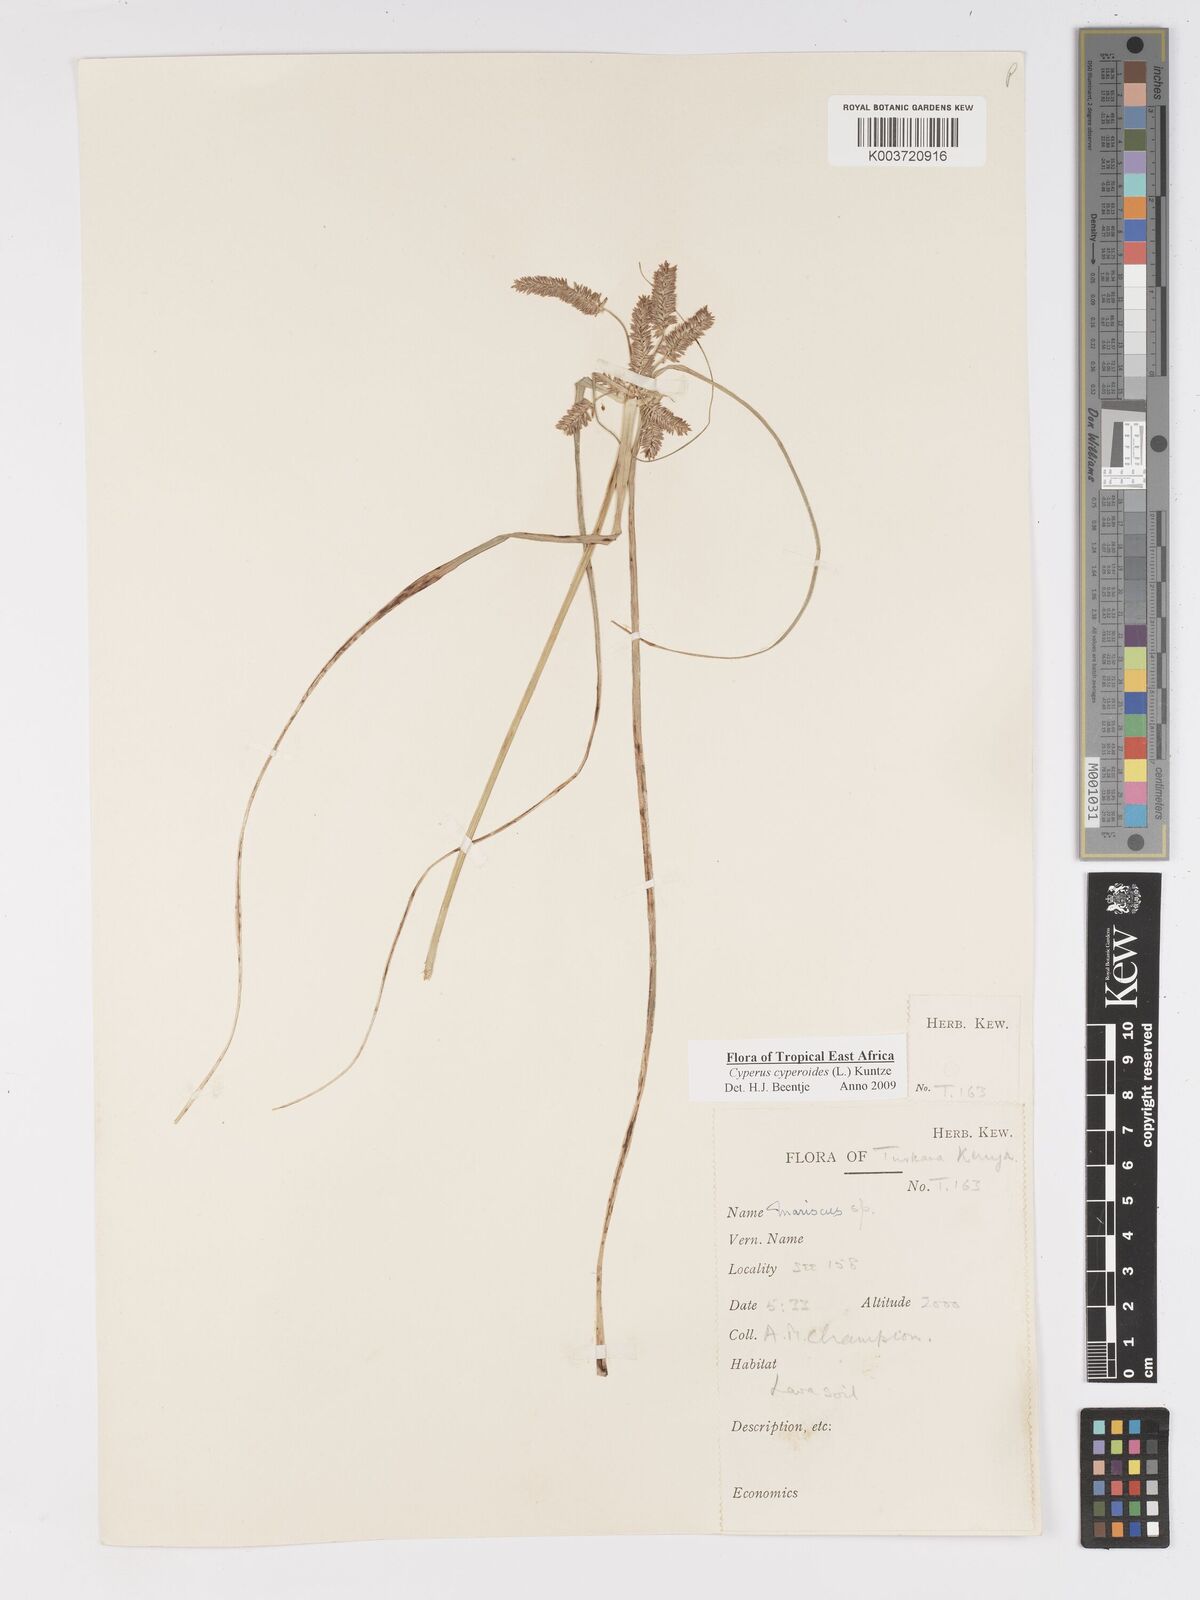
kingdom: Plantae
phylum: Tracheophyta
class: Liliopsida
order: Poales
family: Cyperaceae
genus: Cyperus
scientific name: Cyperus cyperoides
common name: Pacific island flat sedge
